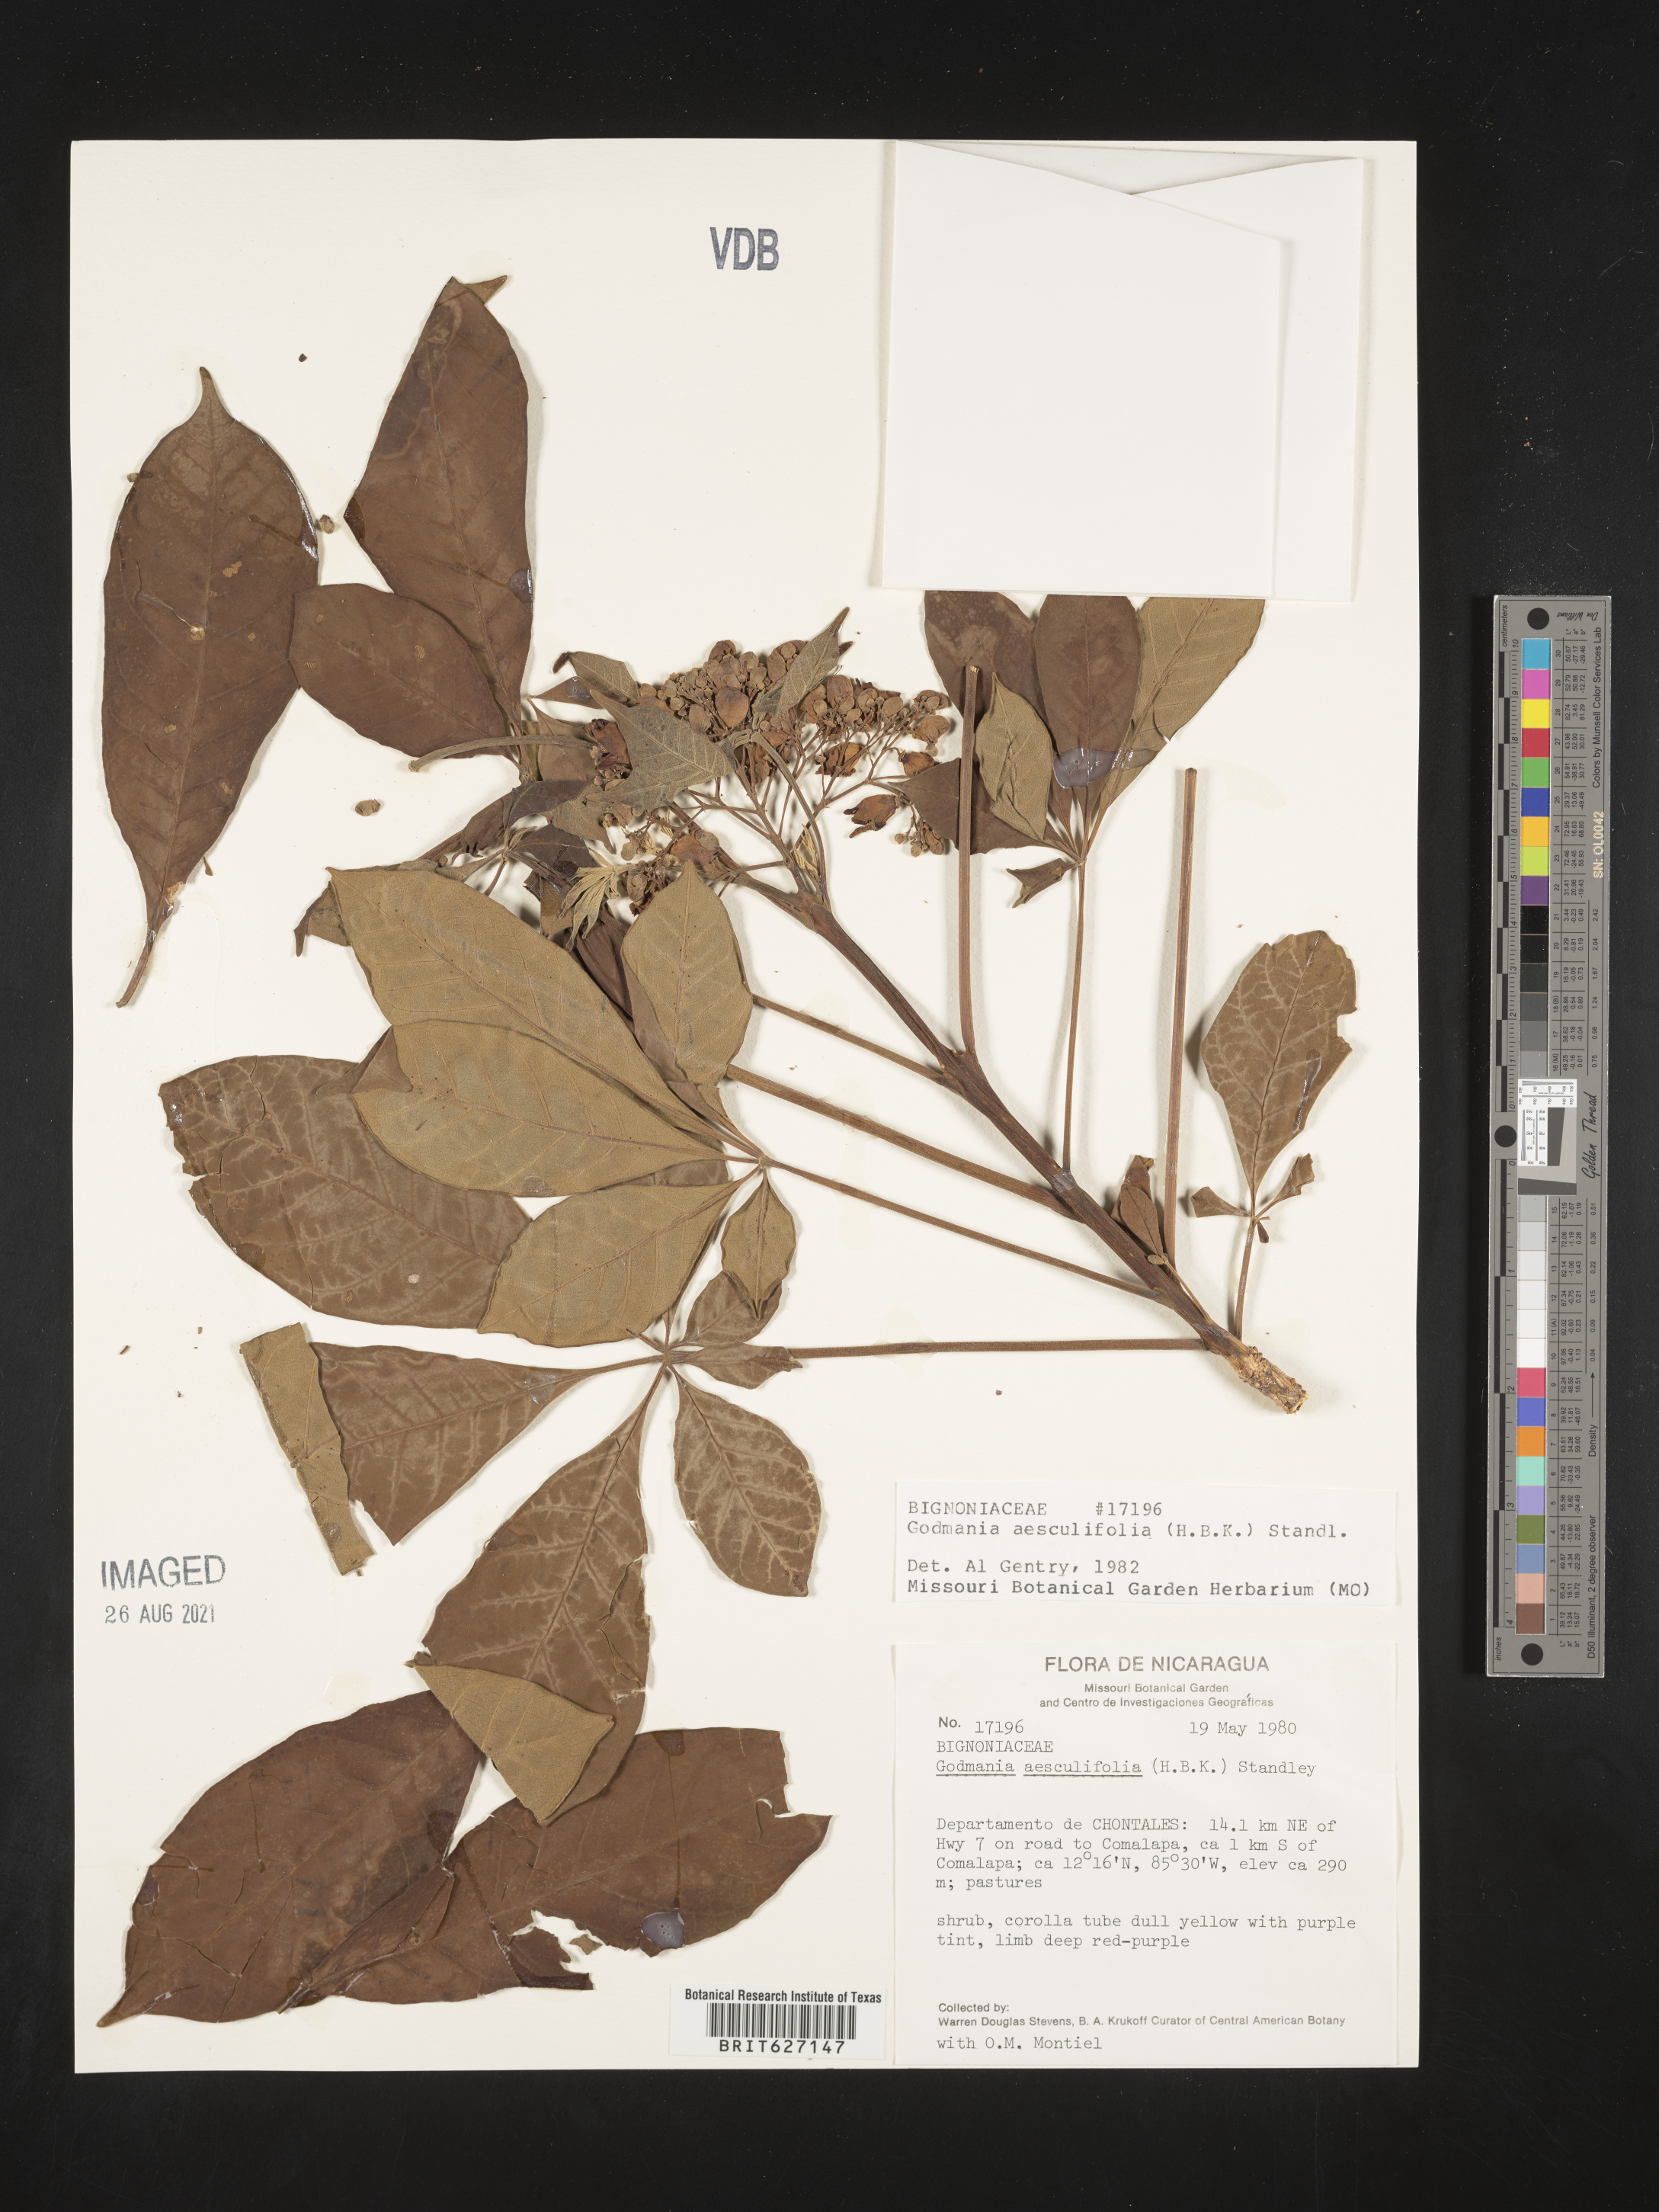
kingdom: Plantae
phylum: Tracheophyta
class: Magnoliopsida
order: Lamiales
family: Bignoniaceae
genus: Godmania
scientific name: Godmania aesculifolia
